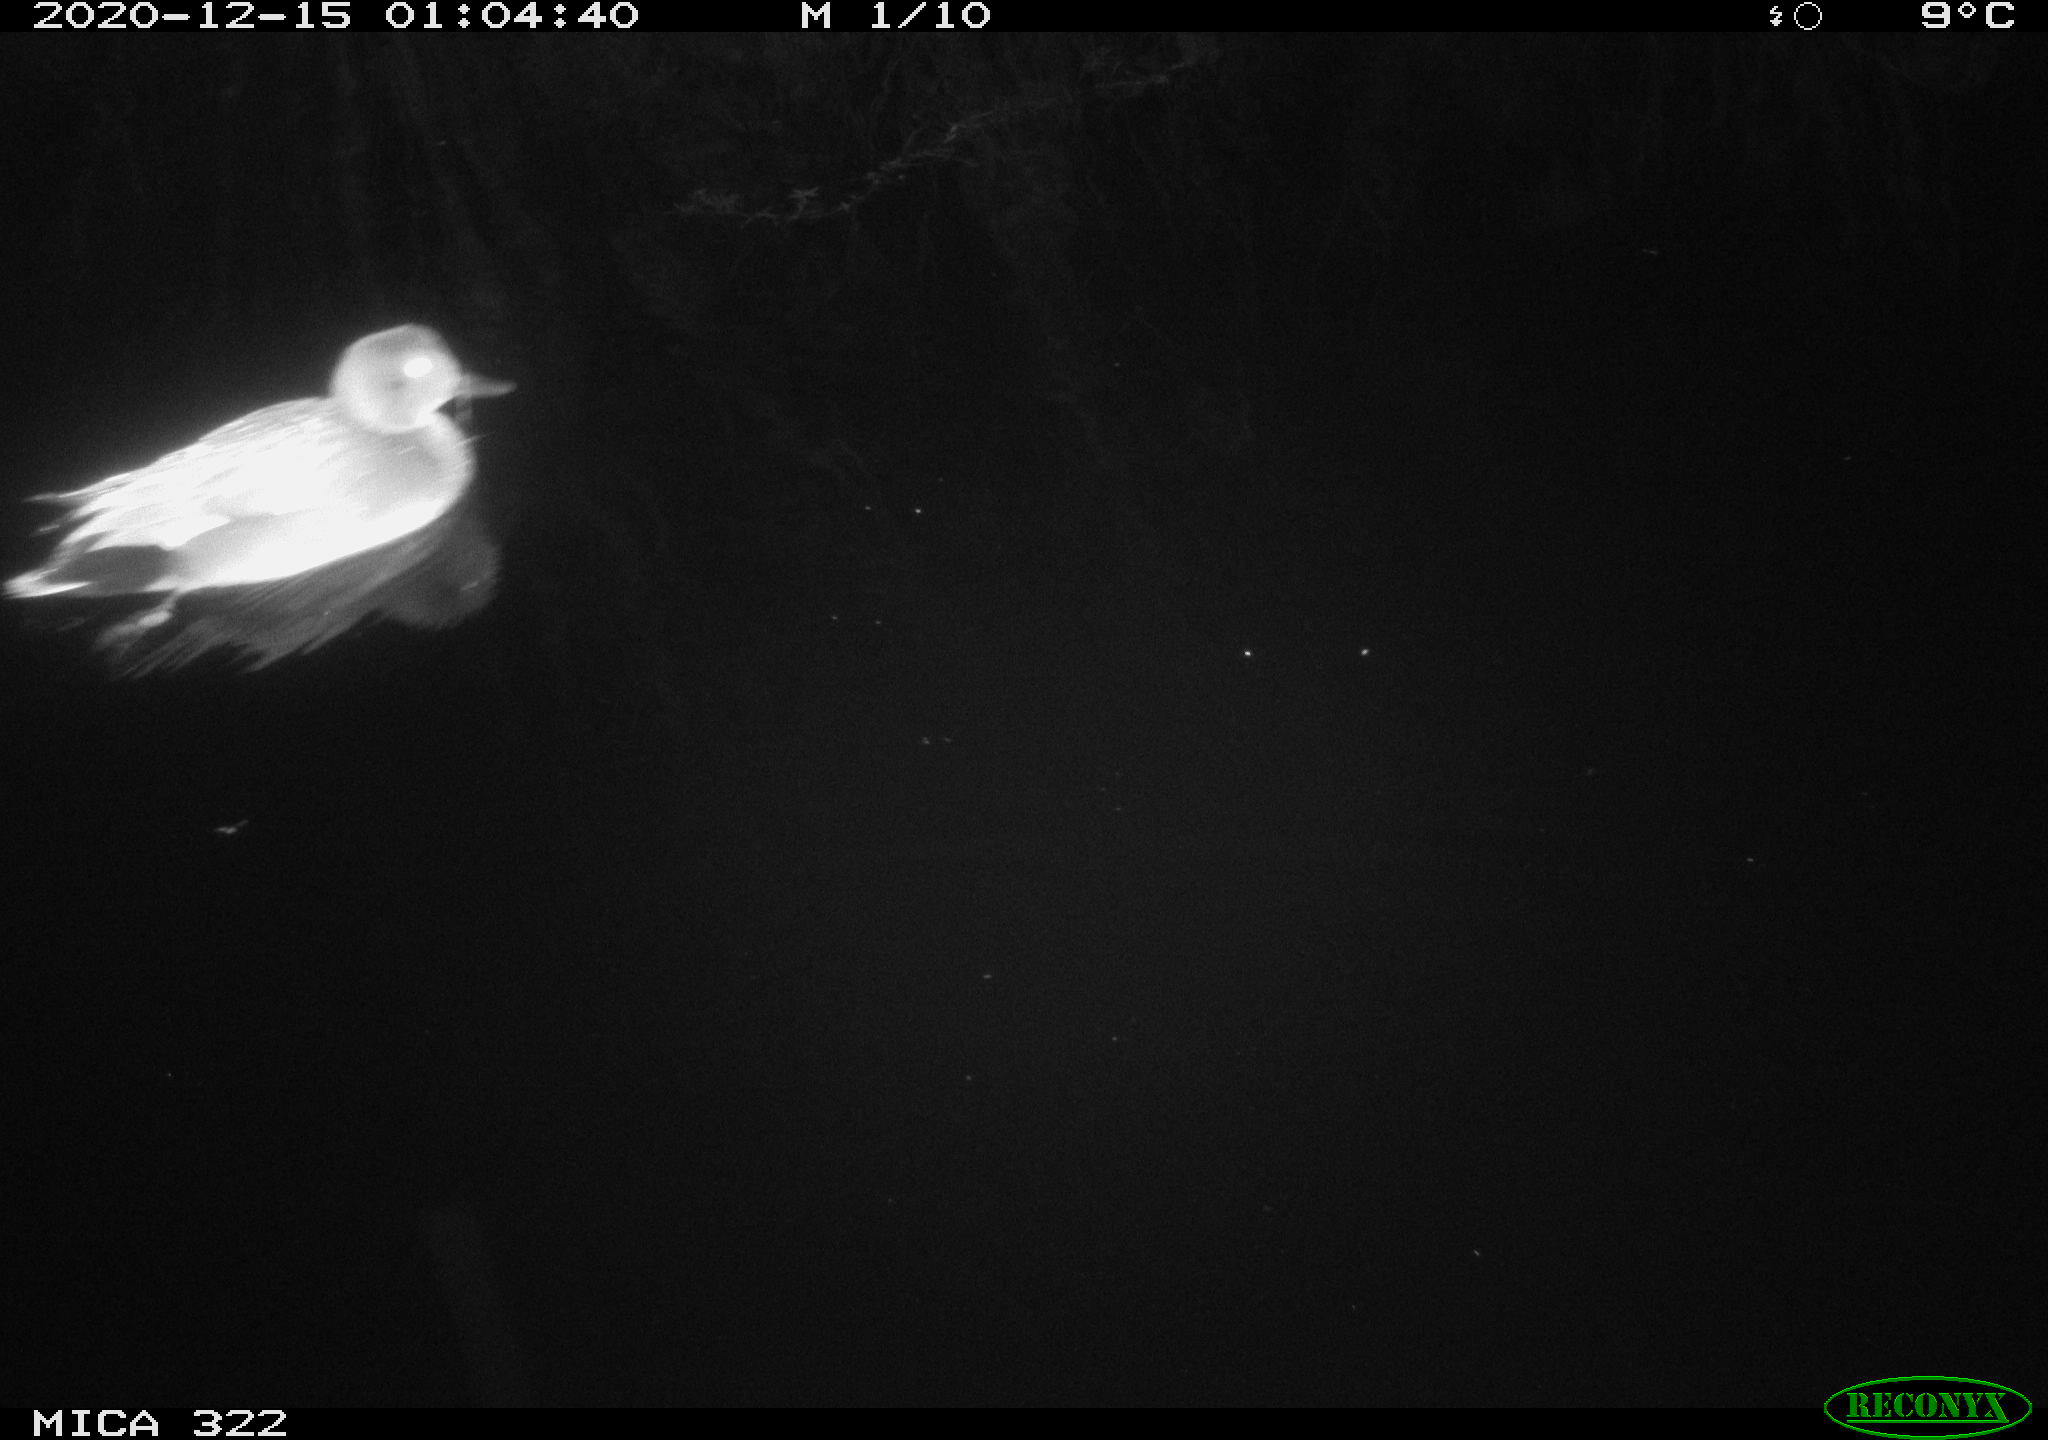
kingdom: Animalia
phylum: Chordata
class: Aves
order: Anseriformes
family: Anatidae
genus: Mareca
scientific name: Mareca strepera
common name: Gadwall
